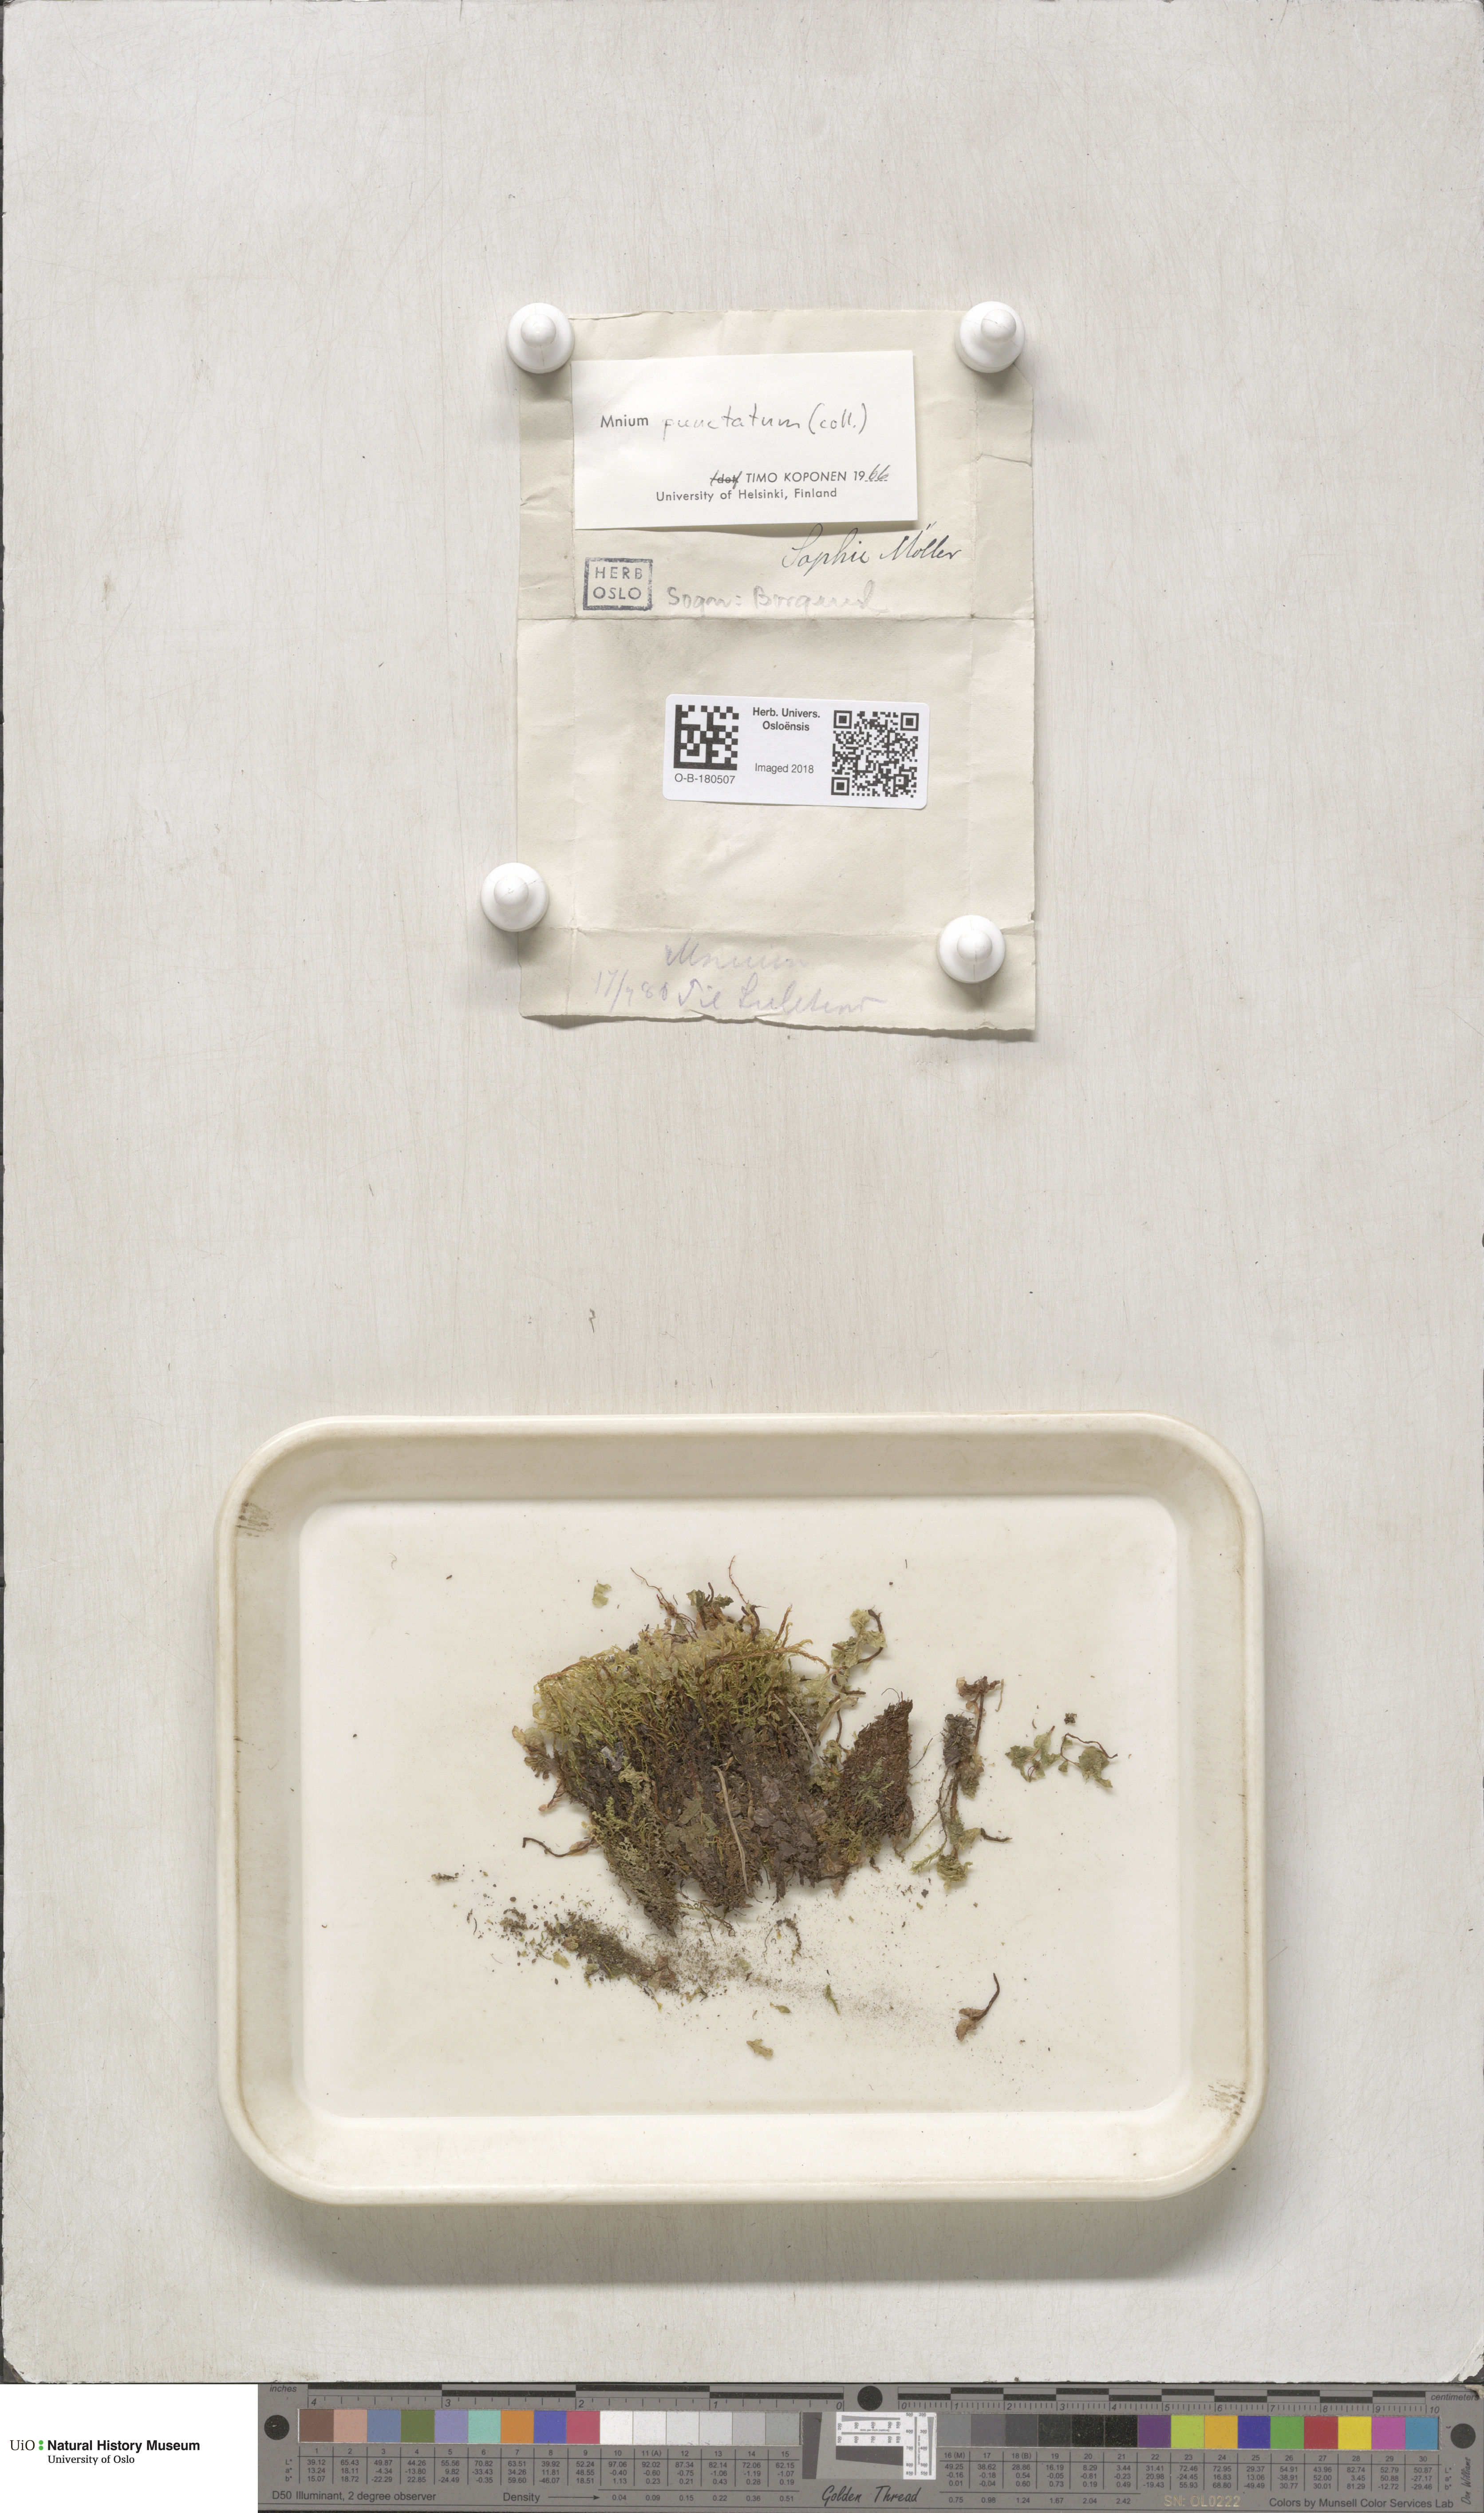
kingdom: Plantae
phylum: Bryophyta
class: Bryopsida
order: Bryales
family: Mniaceae
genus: Rhizomnium
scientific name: Rhizomnium punctatum
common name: Dotted leafy moss
